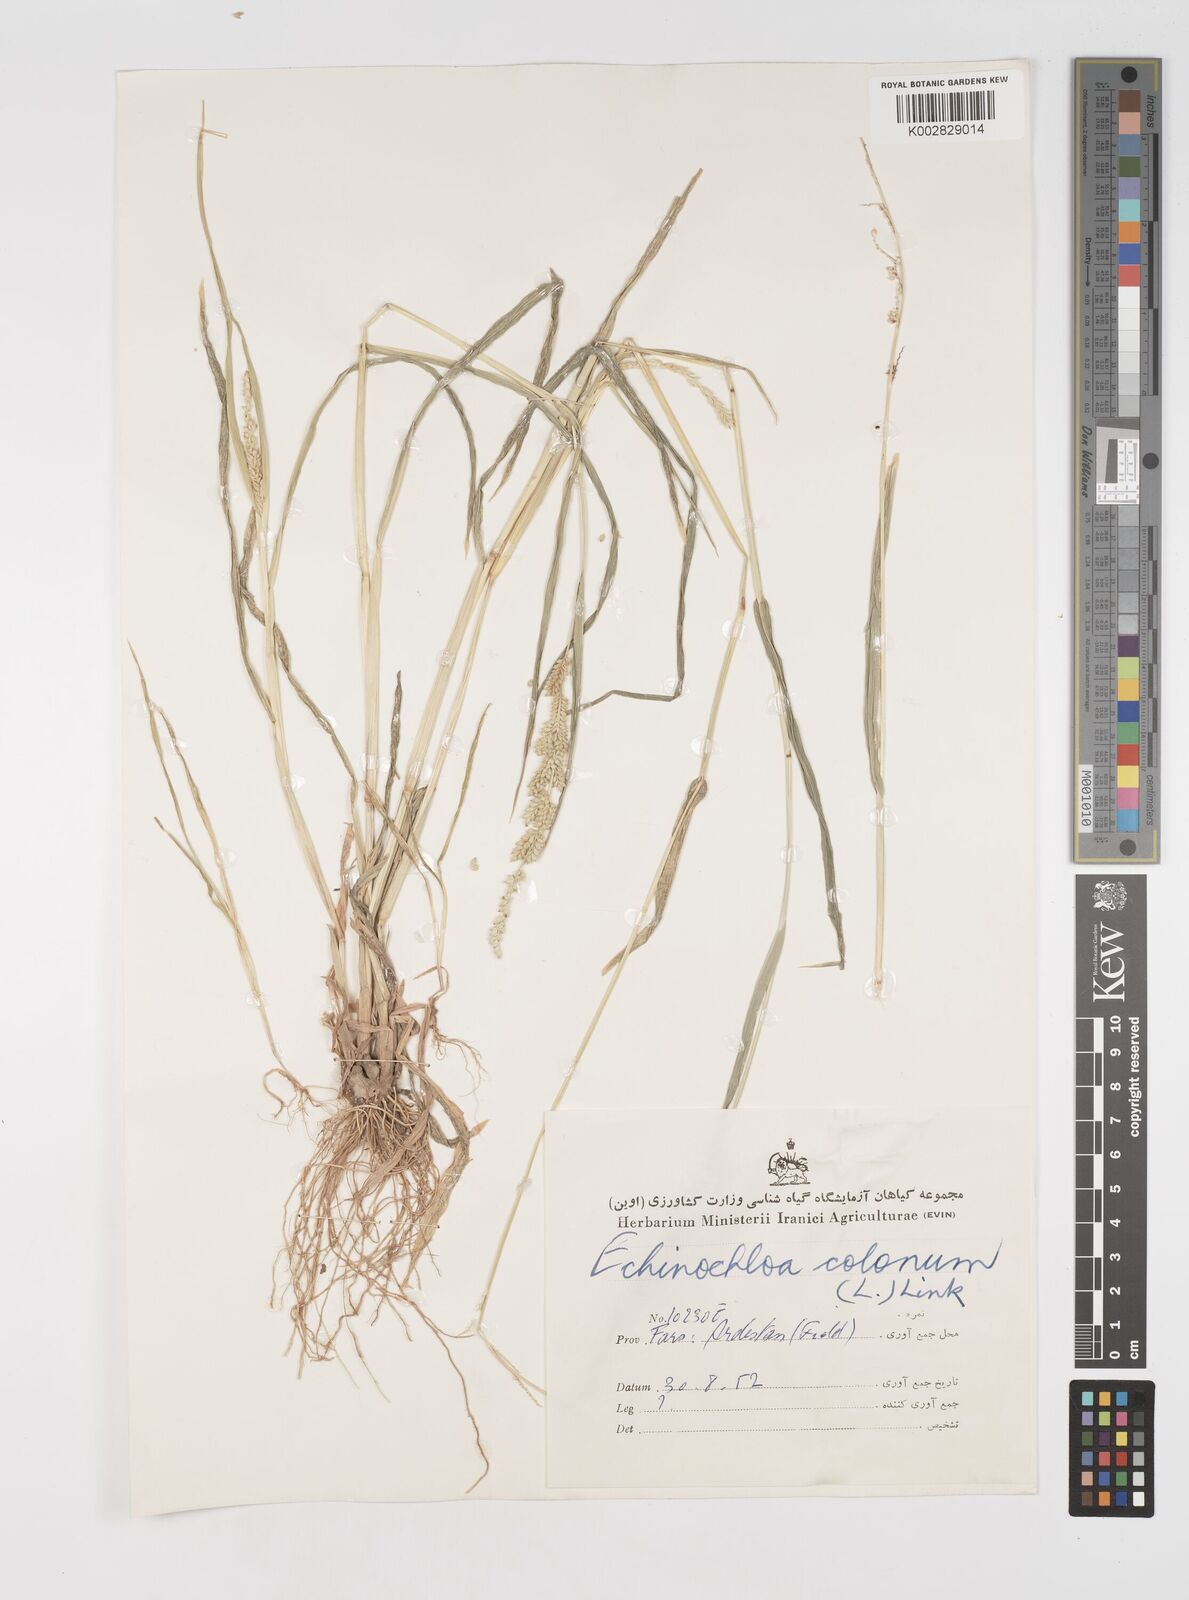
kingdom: Plantae
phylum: Tracheophyta
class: Liliopsida
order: Poales
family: Poaceae
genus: Echinochloa
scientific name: Echinochloa colonum
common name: Jungle rice
